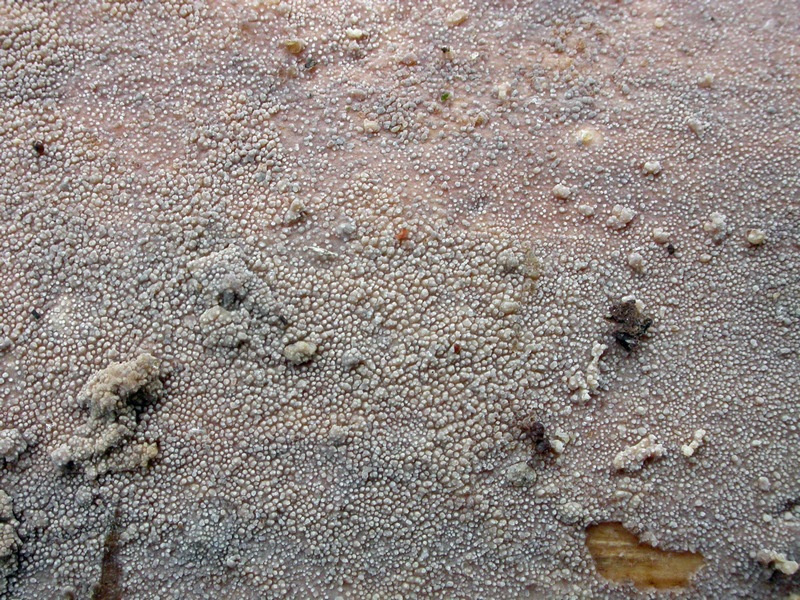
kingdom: Fungi
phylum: Basidiomycota
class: Agaricomycetes
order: Hymenochaetales
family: Rickenellaceae
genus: Resinicium
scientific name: Resinicium bicolor
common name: almindelig vokstand
